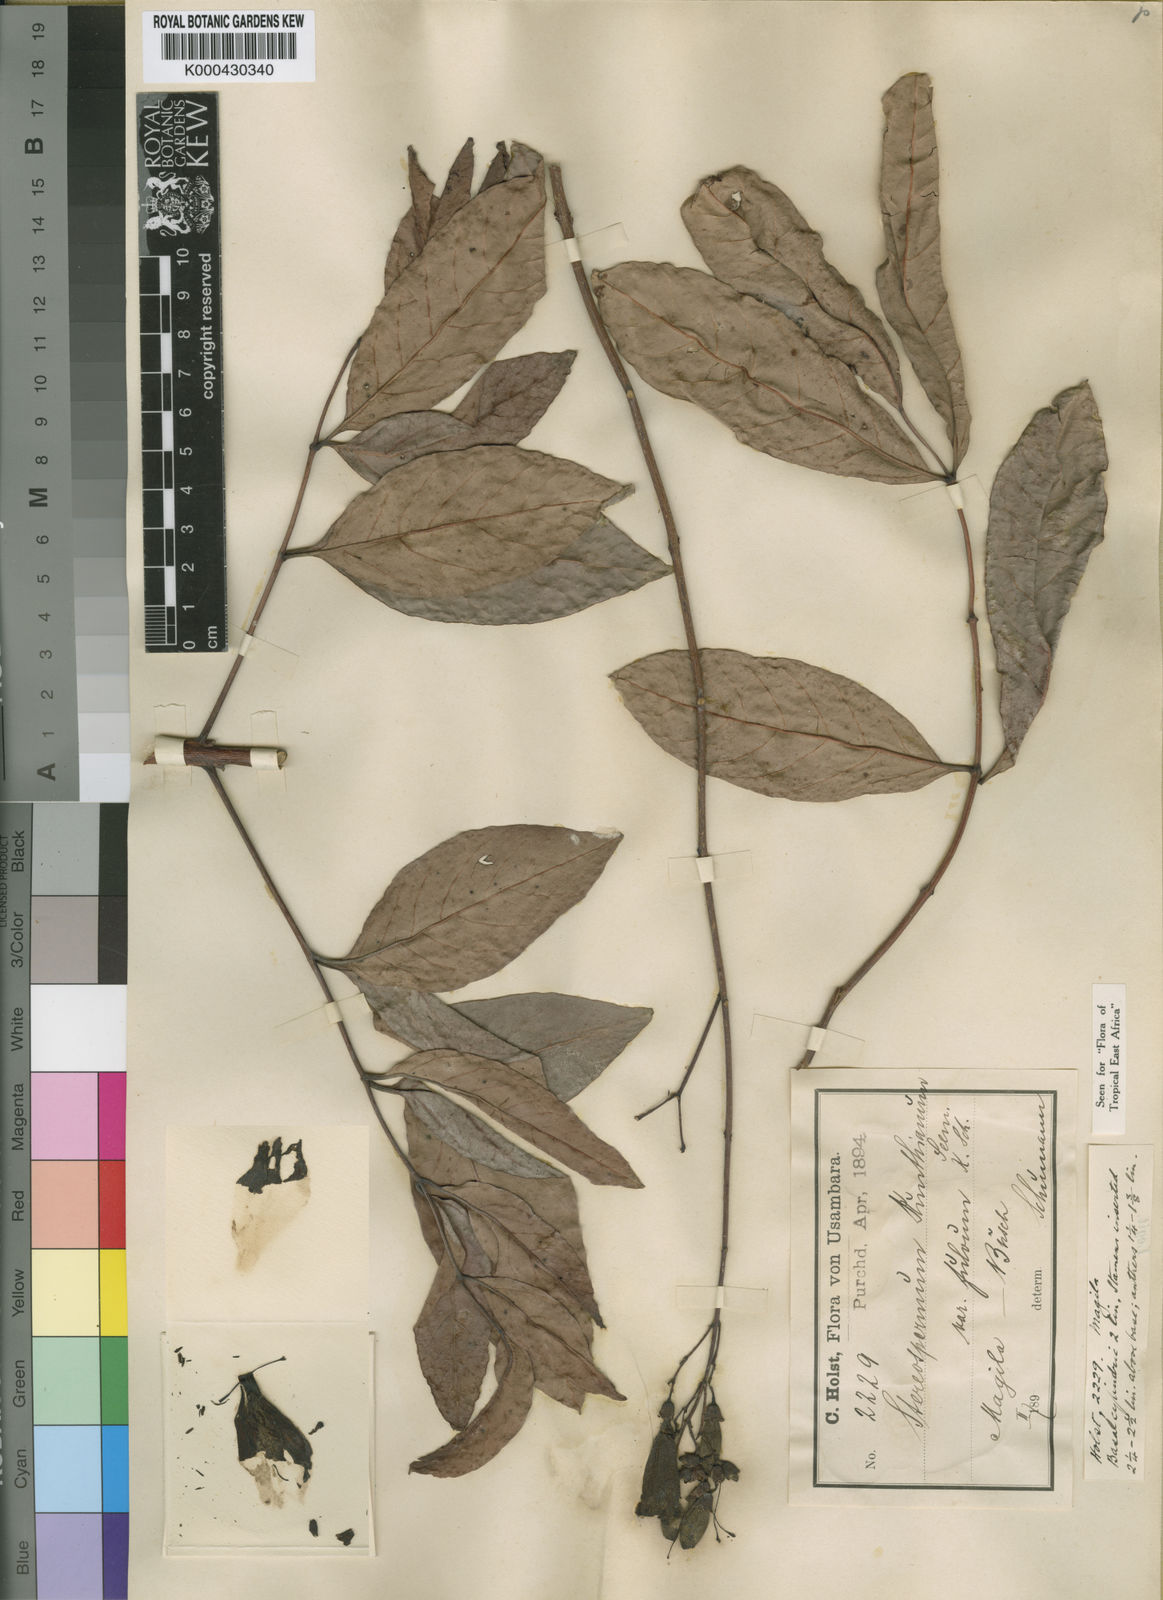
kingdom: Plantae
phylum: Tracheophyta
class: Magnoliopsida
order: Lamiales
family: Bignoniaceae
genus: Stereospermum
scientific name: Stereospermum kunthianum
